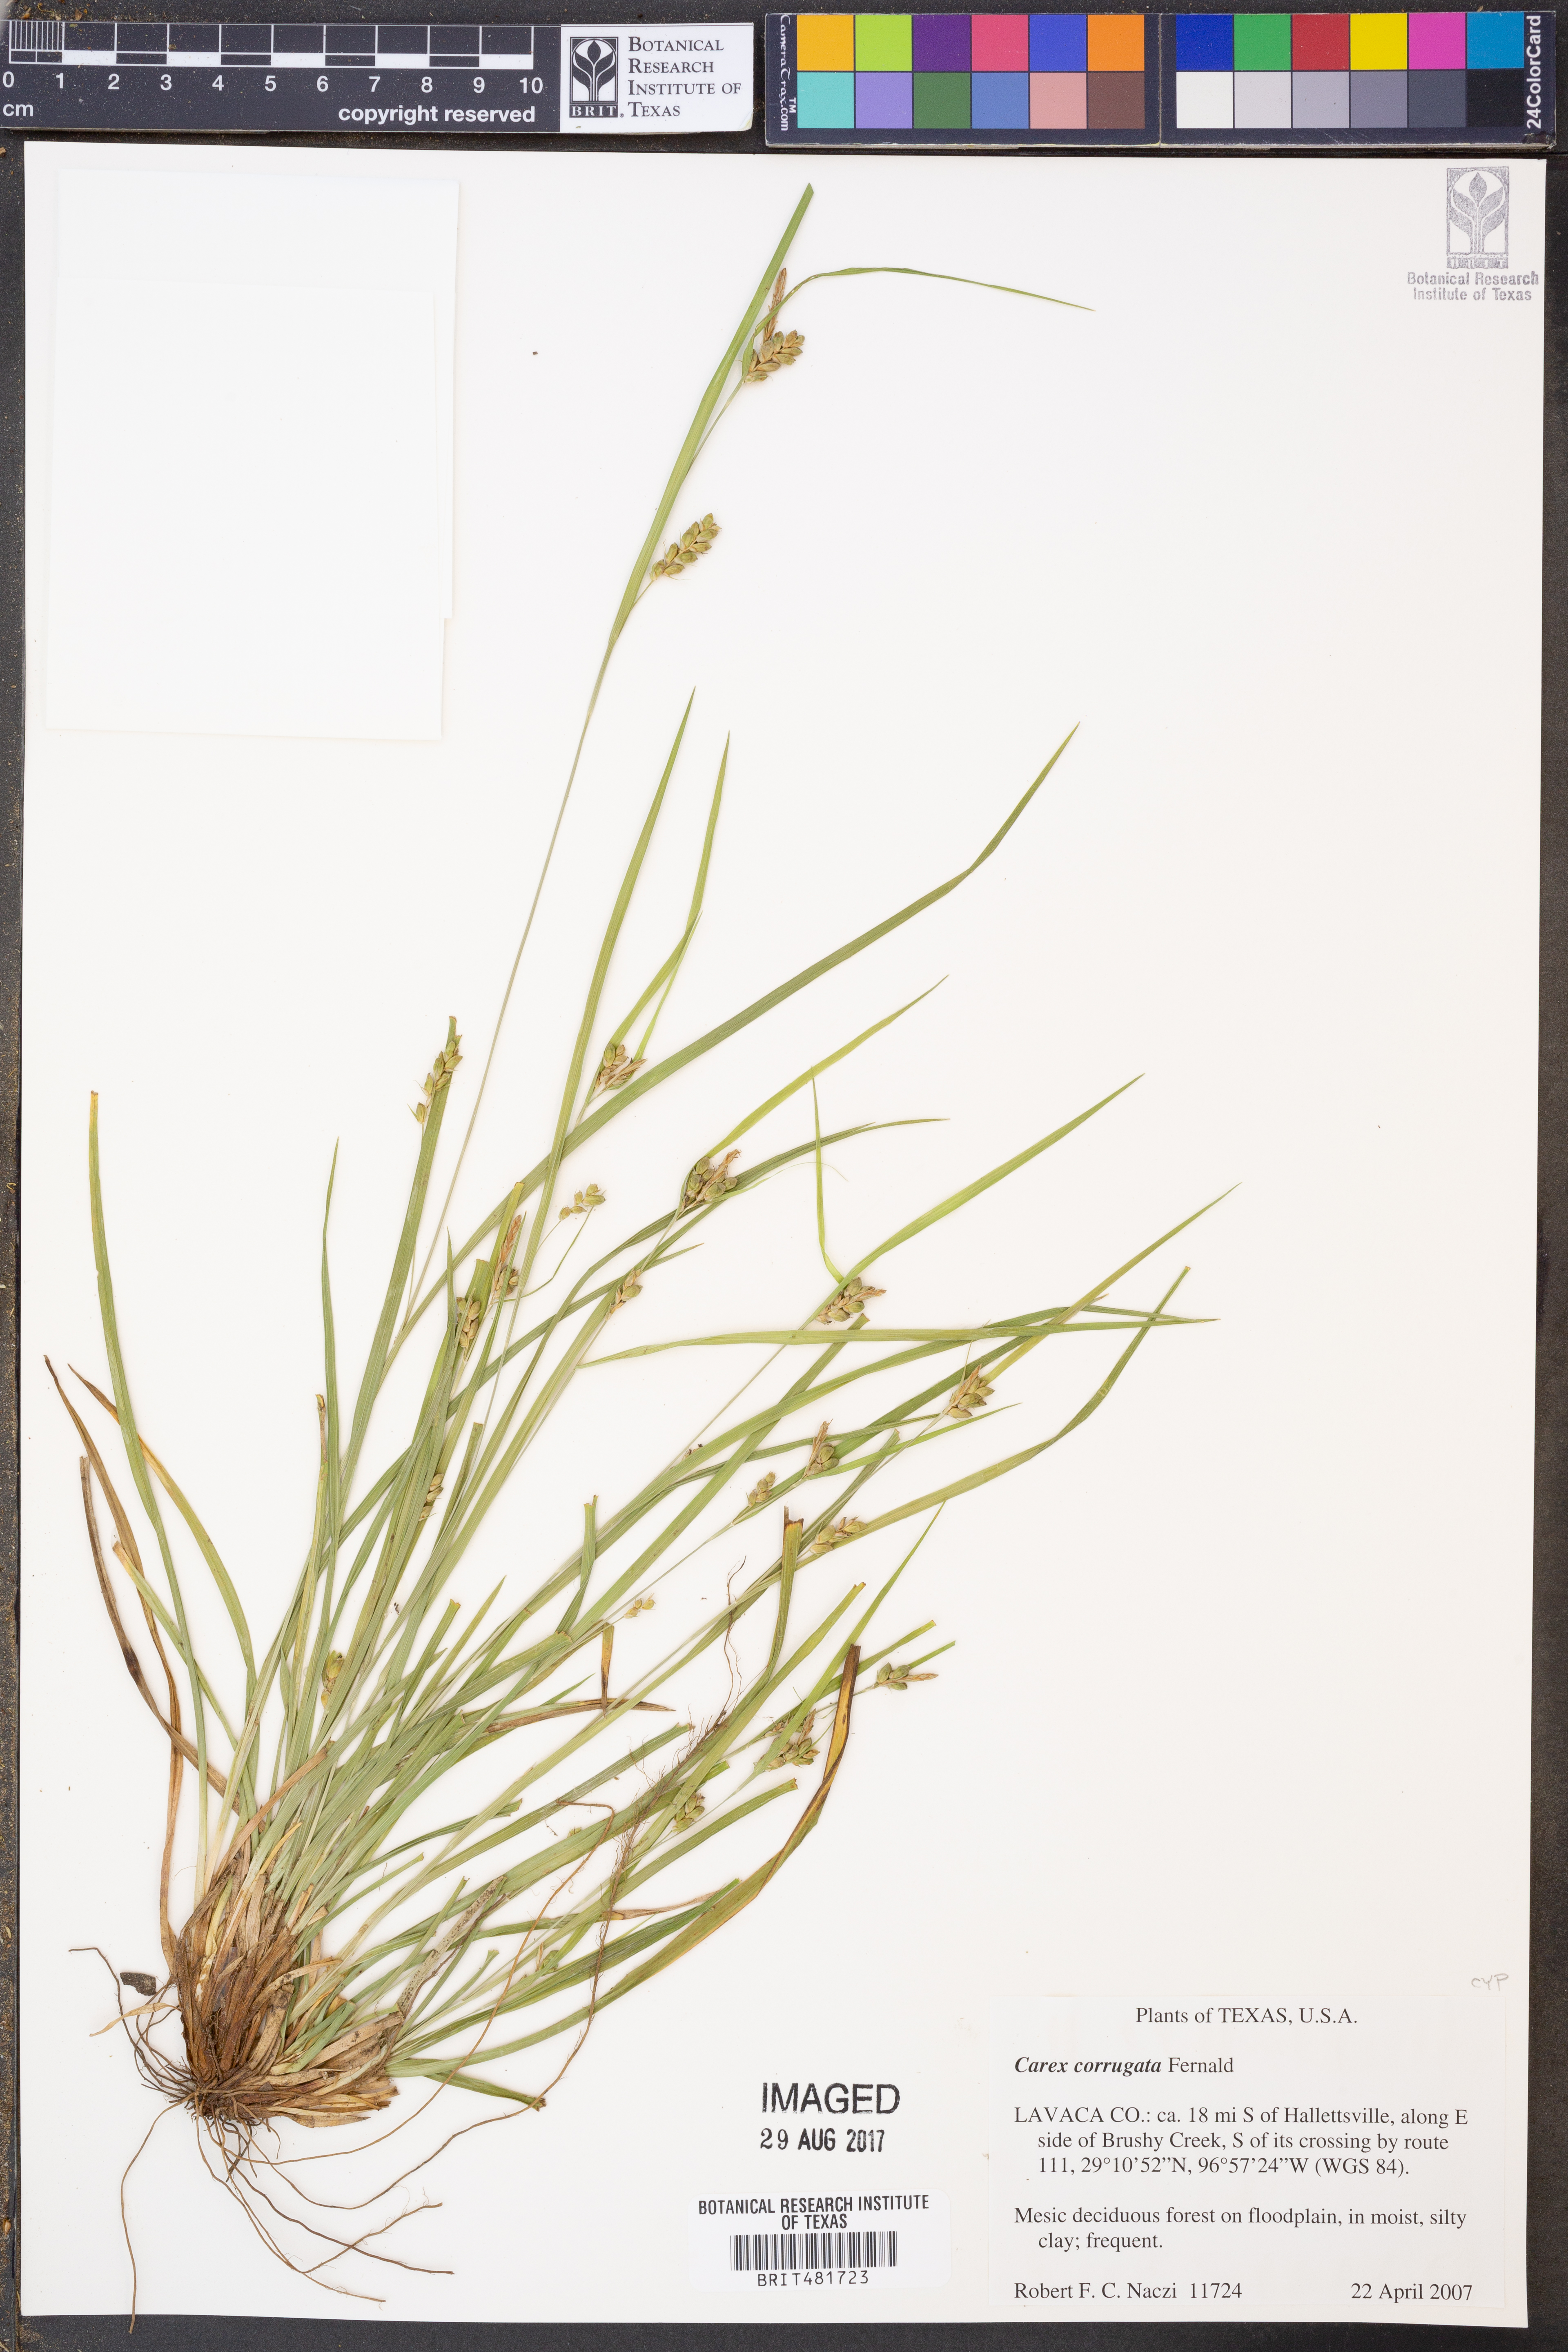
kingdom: Plantae
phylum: Tracheophyta
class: Liliopsida
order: Poales
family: Cyperaceae
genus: Carex
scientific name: Carex corrugata
